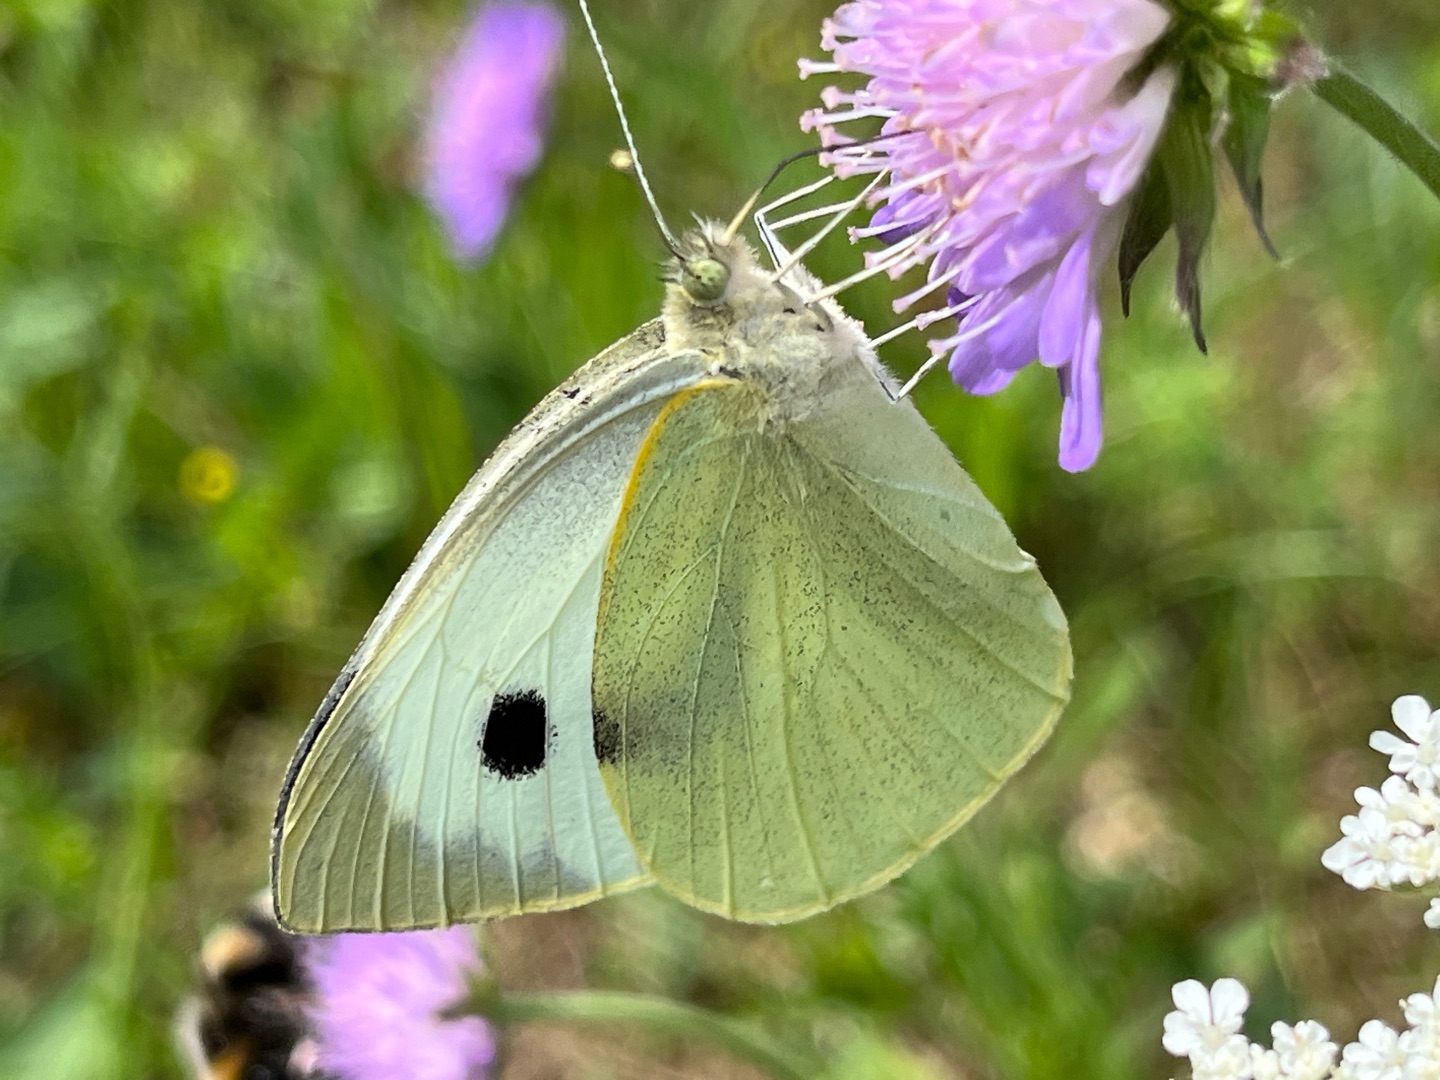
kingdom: Animalia
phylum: Arthropoda
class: Insecta
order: Lepidoptera
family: Pieridae
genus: Pieris
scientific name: Pieris brassicae
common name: Stor kålsommerfugl
